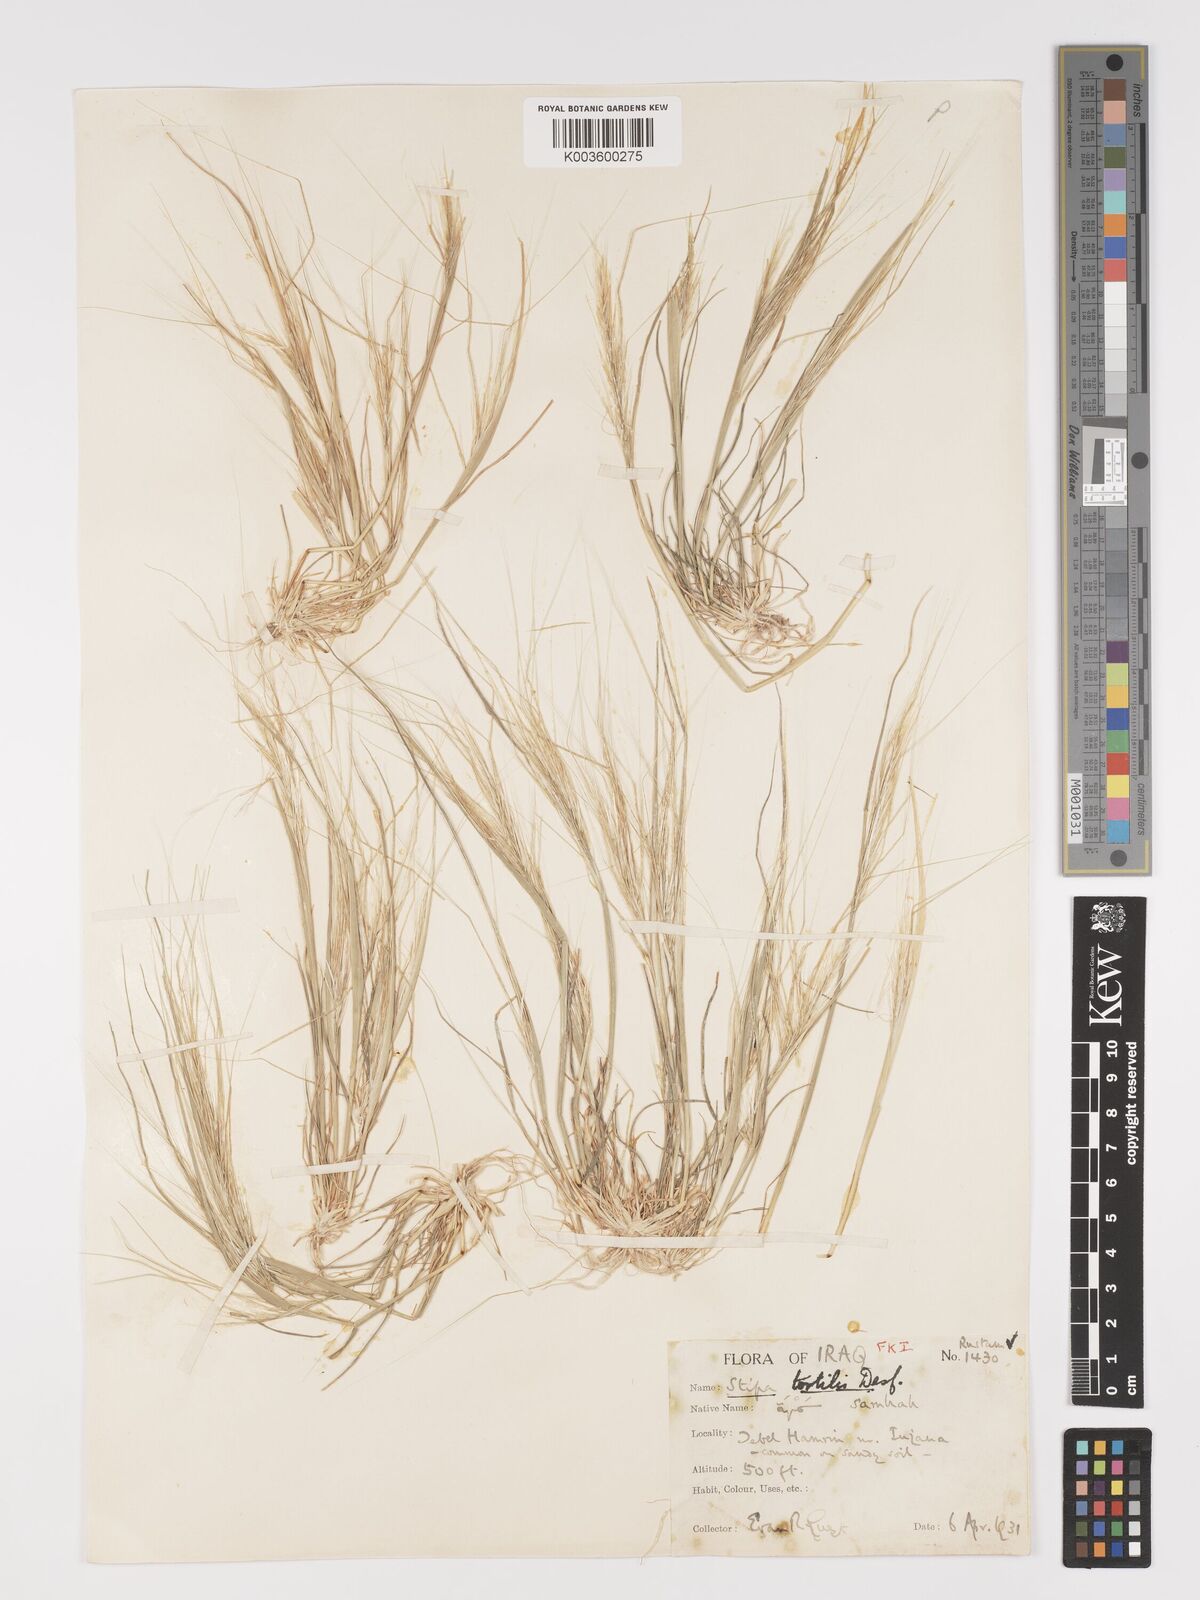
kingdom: Plantae
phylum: Tracheophyta
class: Liliopsida
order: Poales
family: Poaceae
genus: Stipellula
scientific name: Stipellula capensis
